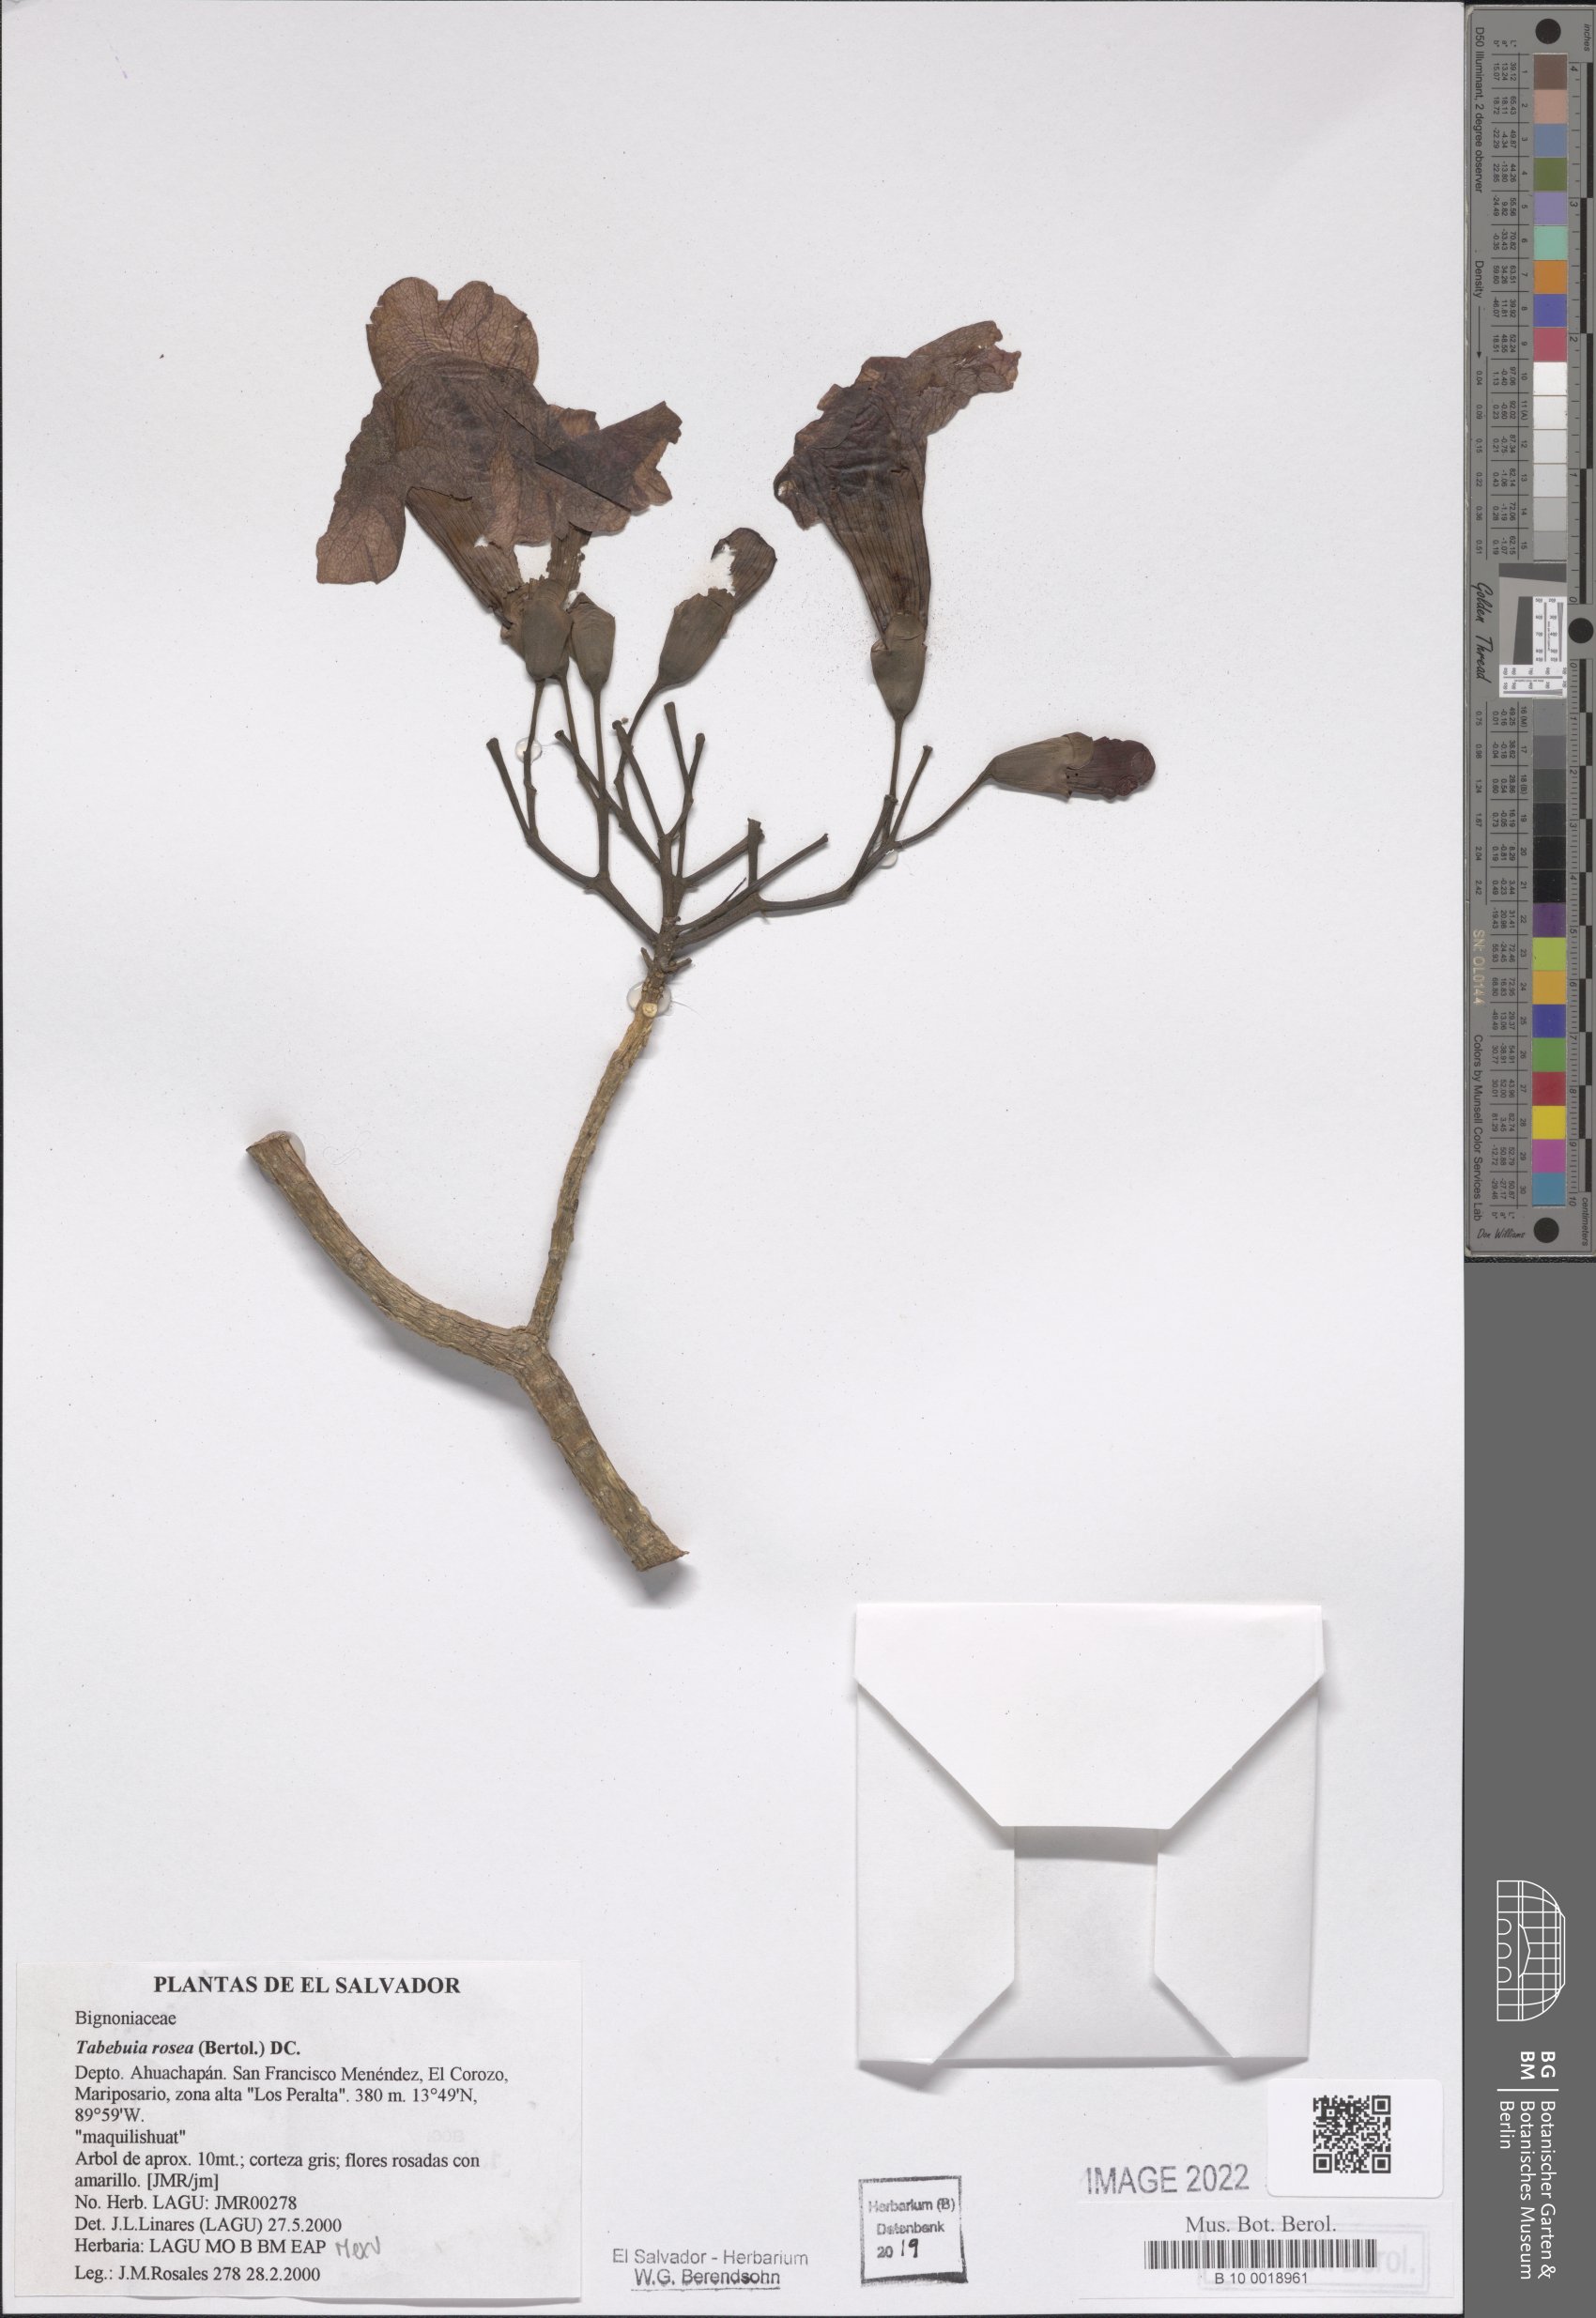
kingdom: Plantae
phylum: Tracheophyta
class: Magnoliopsida
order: Lamiales
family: Bignoniaceae
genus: Tabebuia
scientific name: Tabebuia rosea
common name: Pink poui
